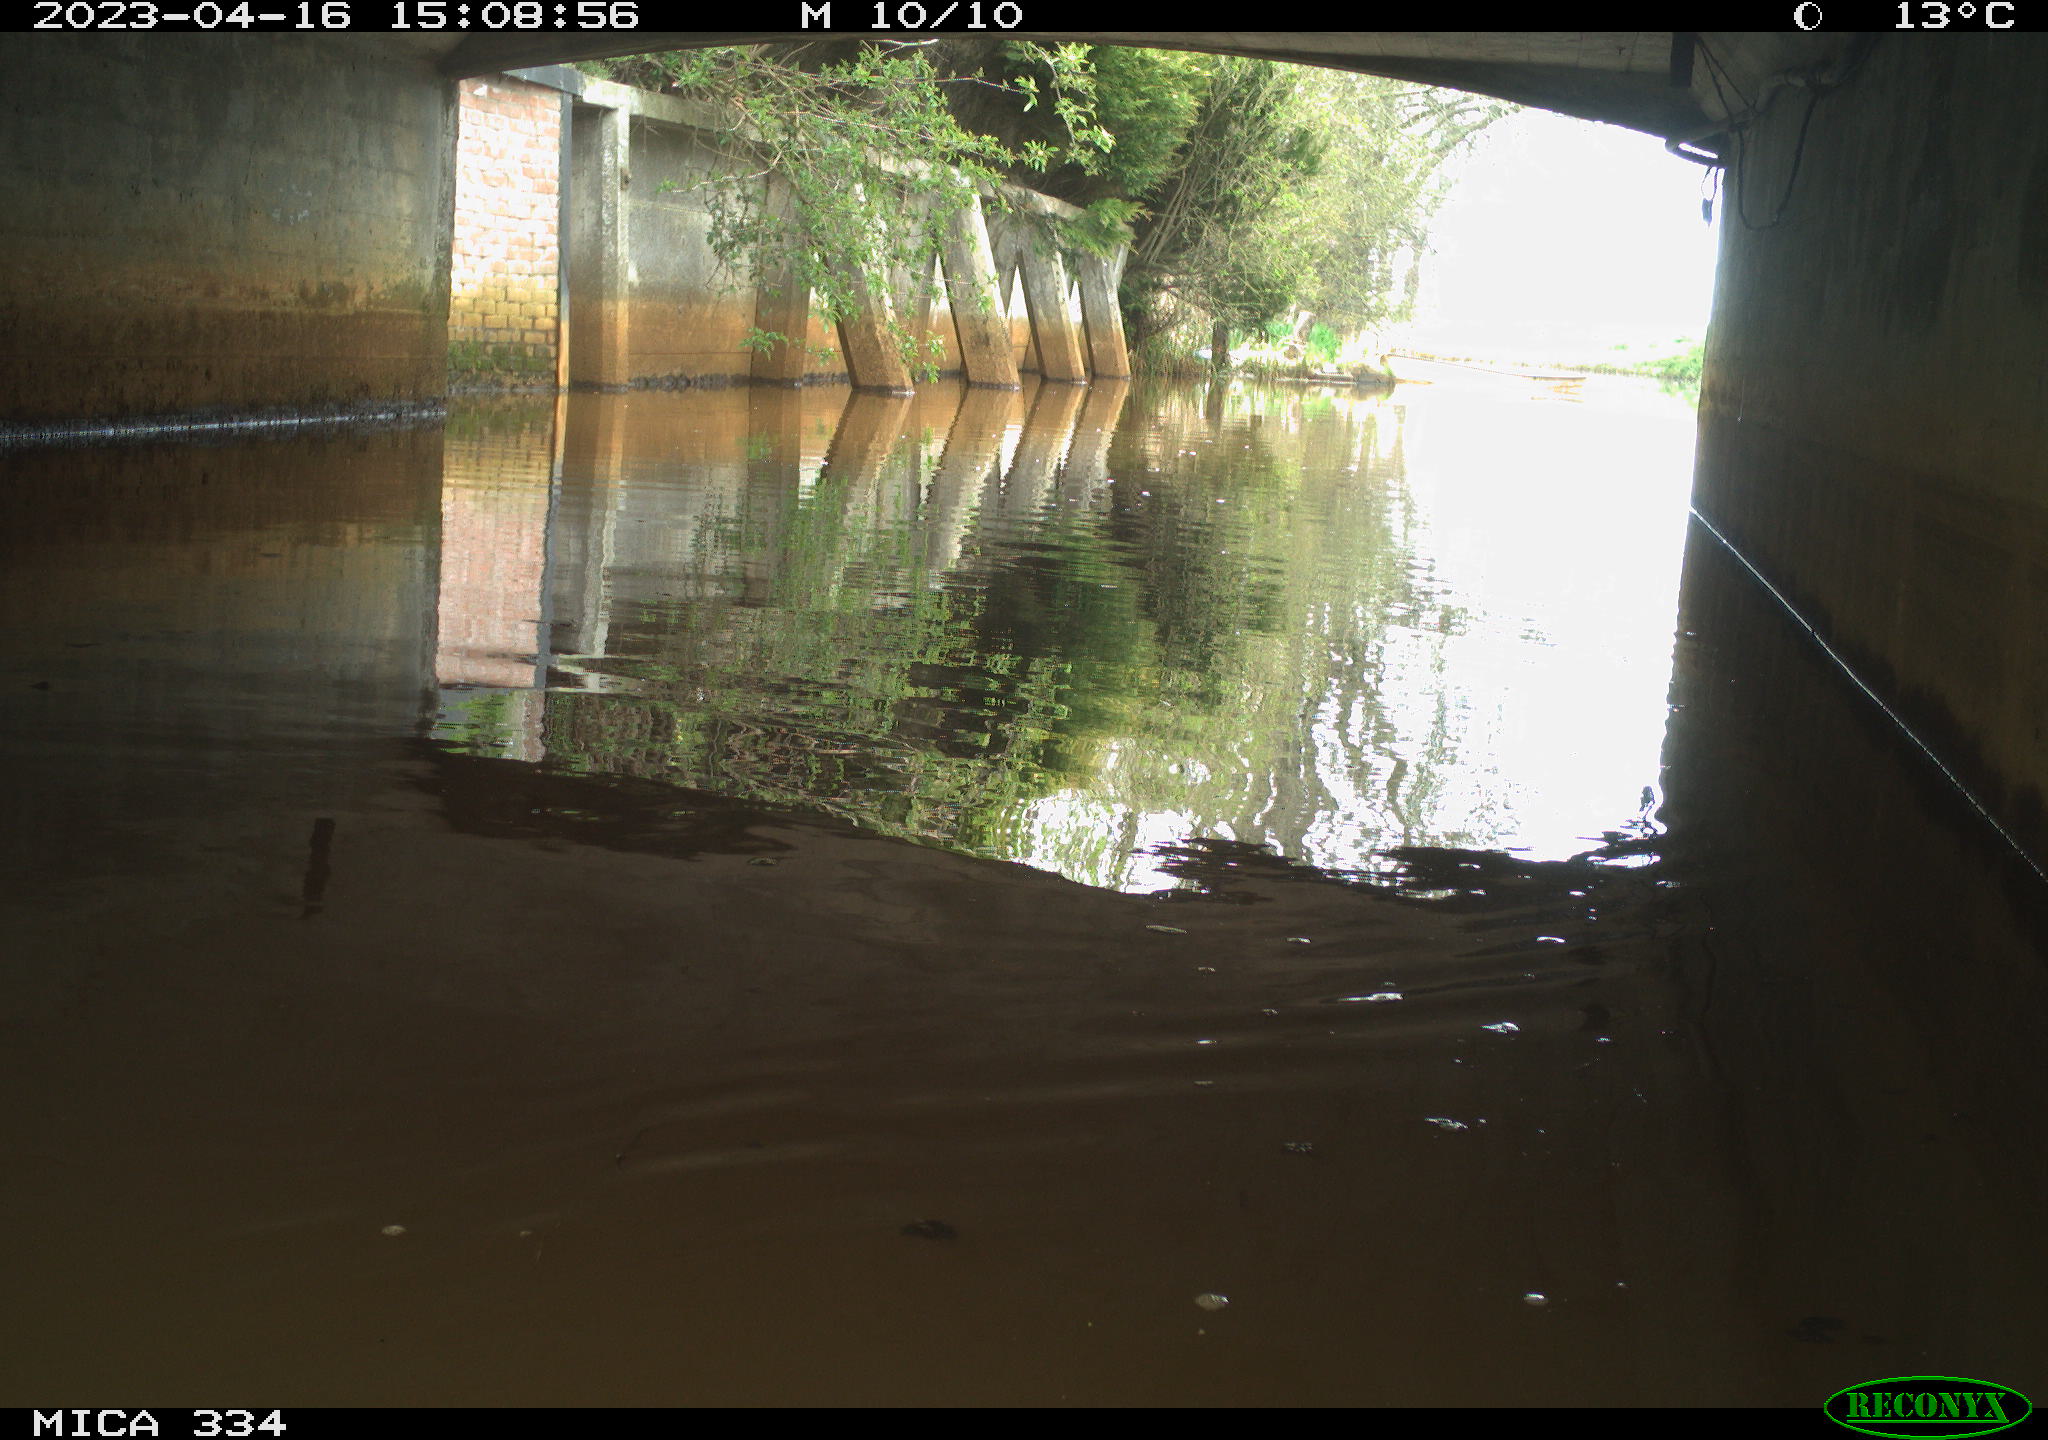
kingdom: Animalia
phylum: Chordata
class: Aves
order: Anseriformes
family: Anatidae
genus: Anas
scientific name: Anas
